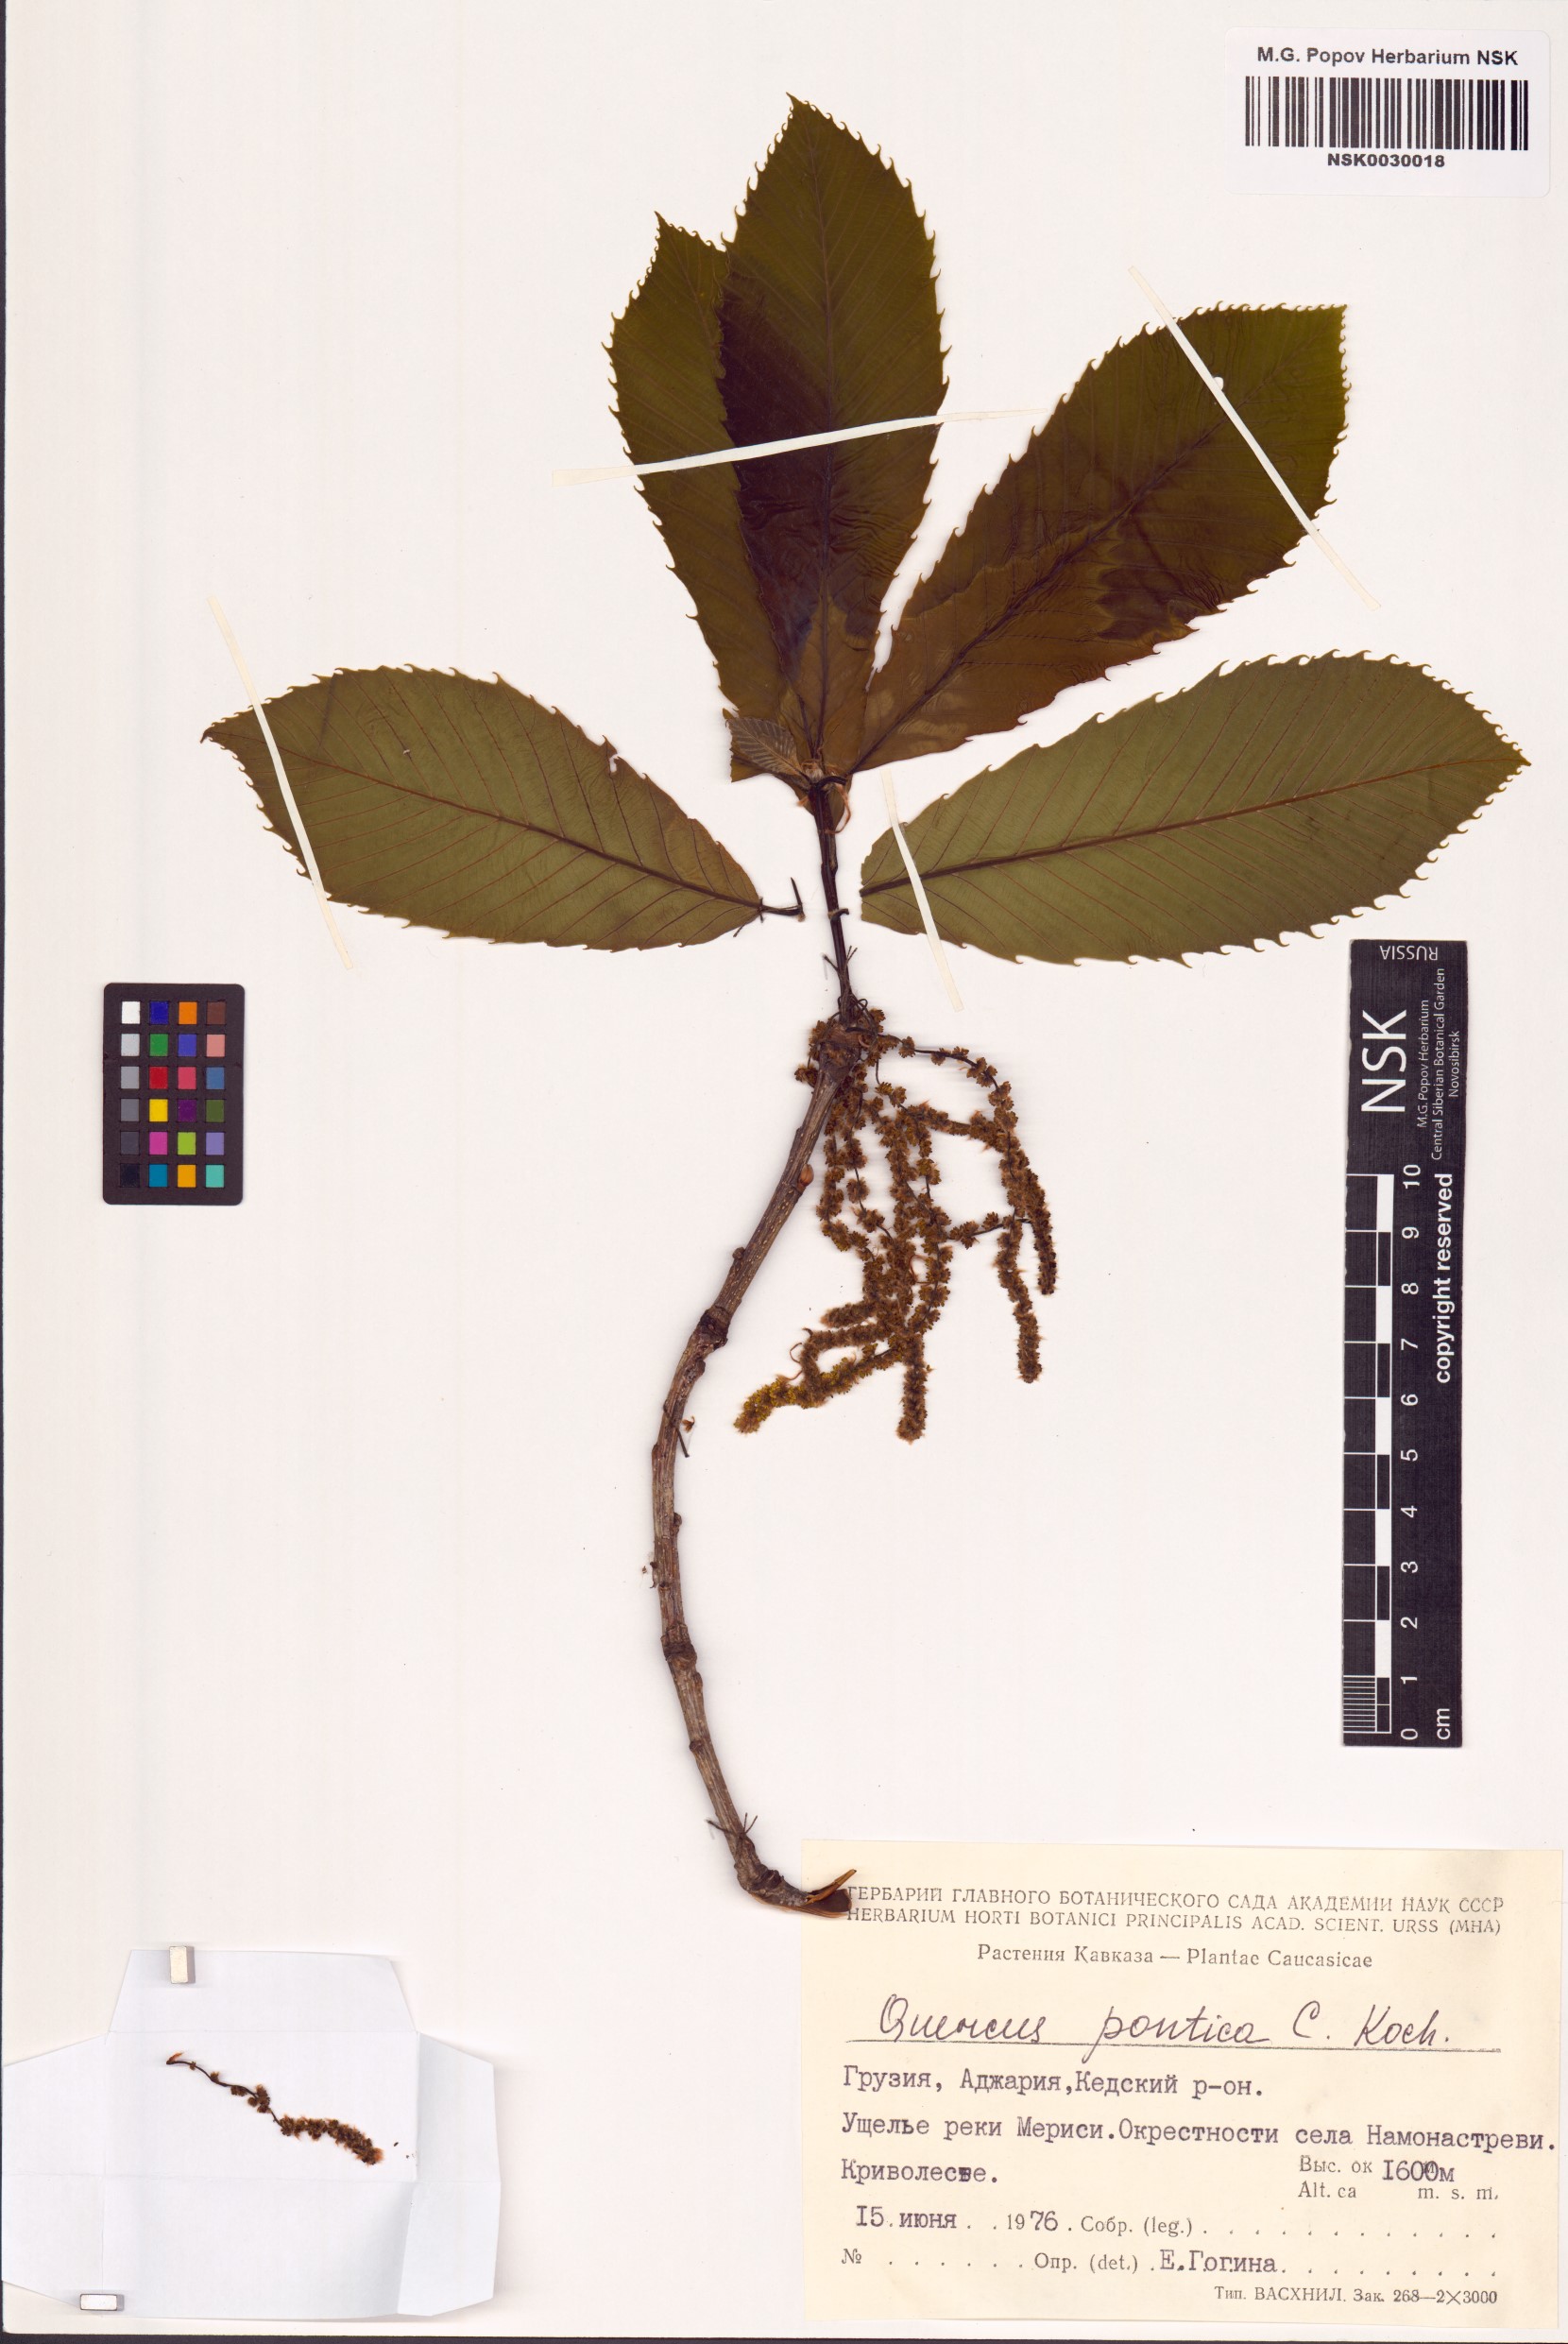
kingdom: Plantae
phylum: Tracheophyta
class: Magnoliopsida
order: Fagales
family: Fagaceae
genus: Quercus
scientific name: Quercus pontica
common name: Armenian oak
